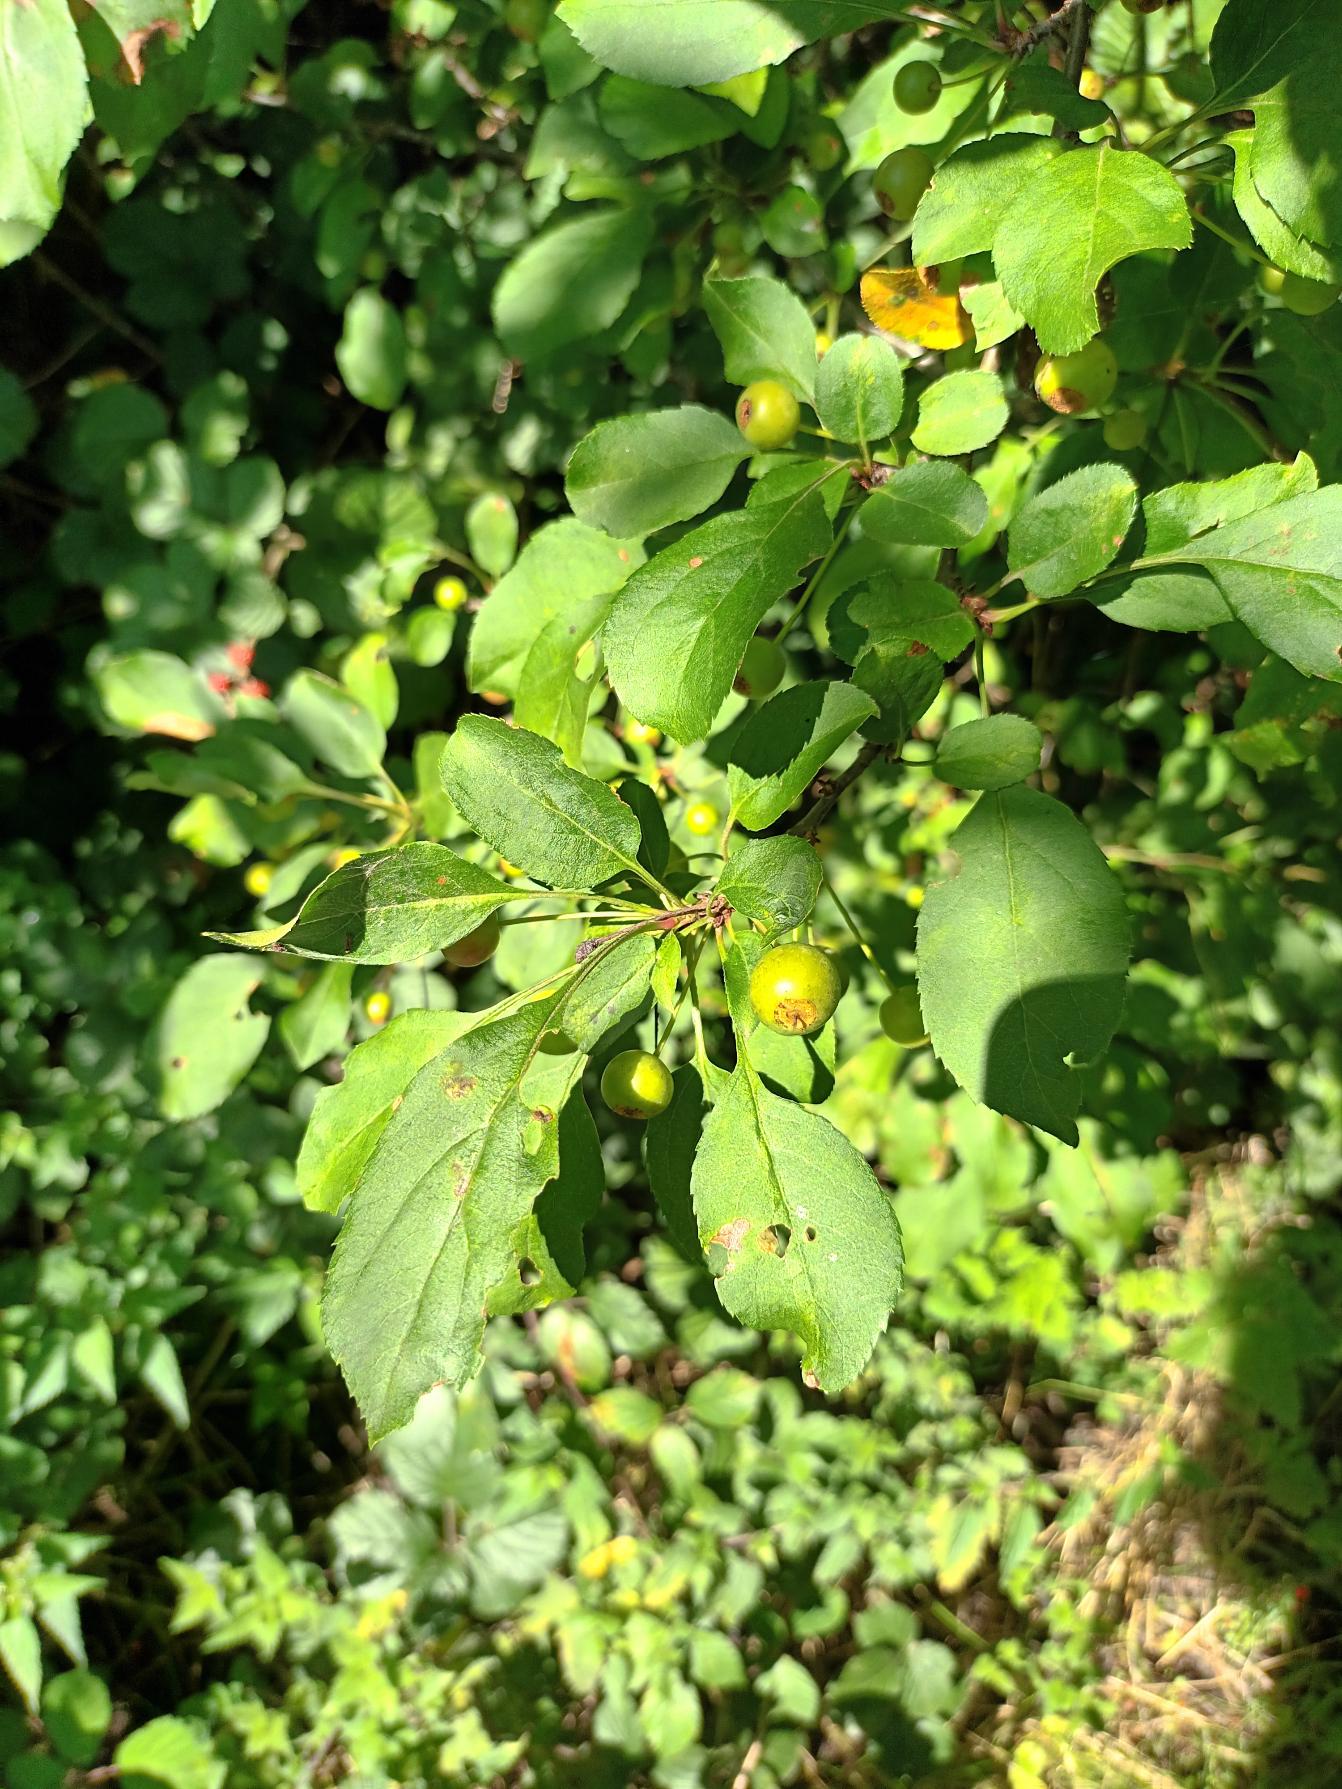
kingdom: Plantae
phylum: Tracheophyta
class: Magnoliopsida
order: Rosales
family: Rosaceae
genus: Malus
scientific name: Malus baccata
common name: Bær-æble
